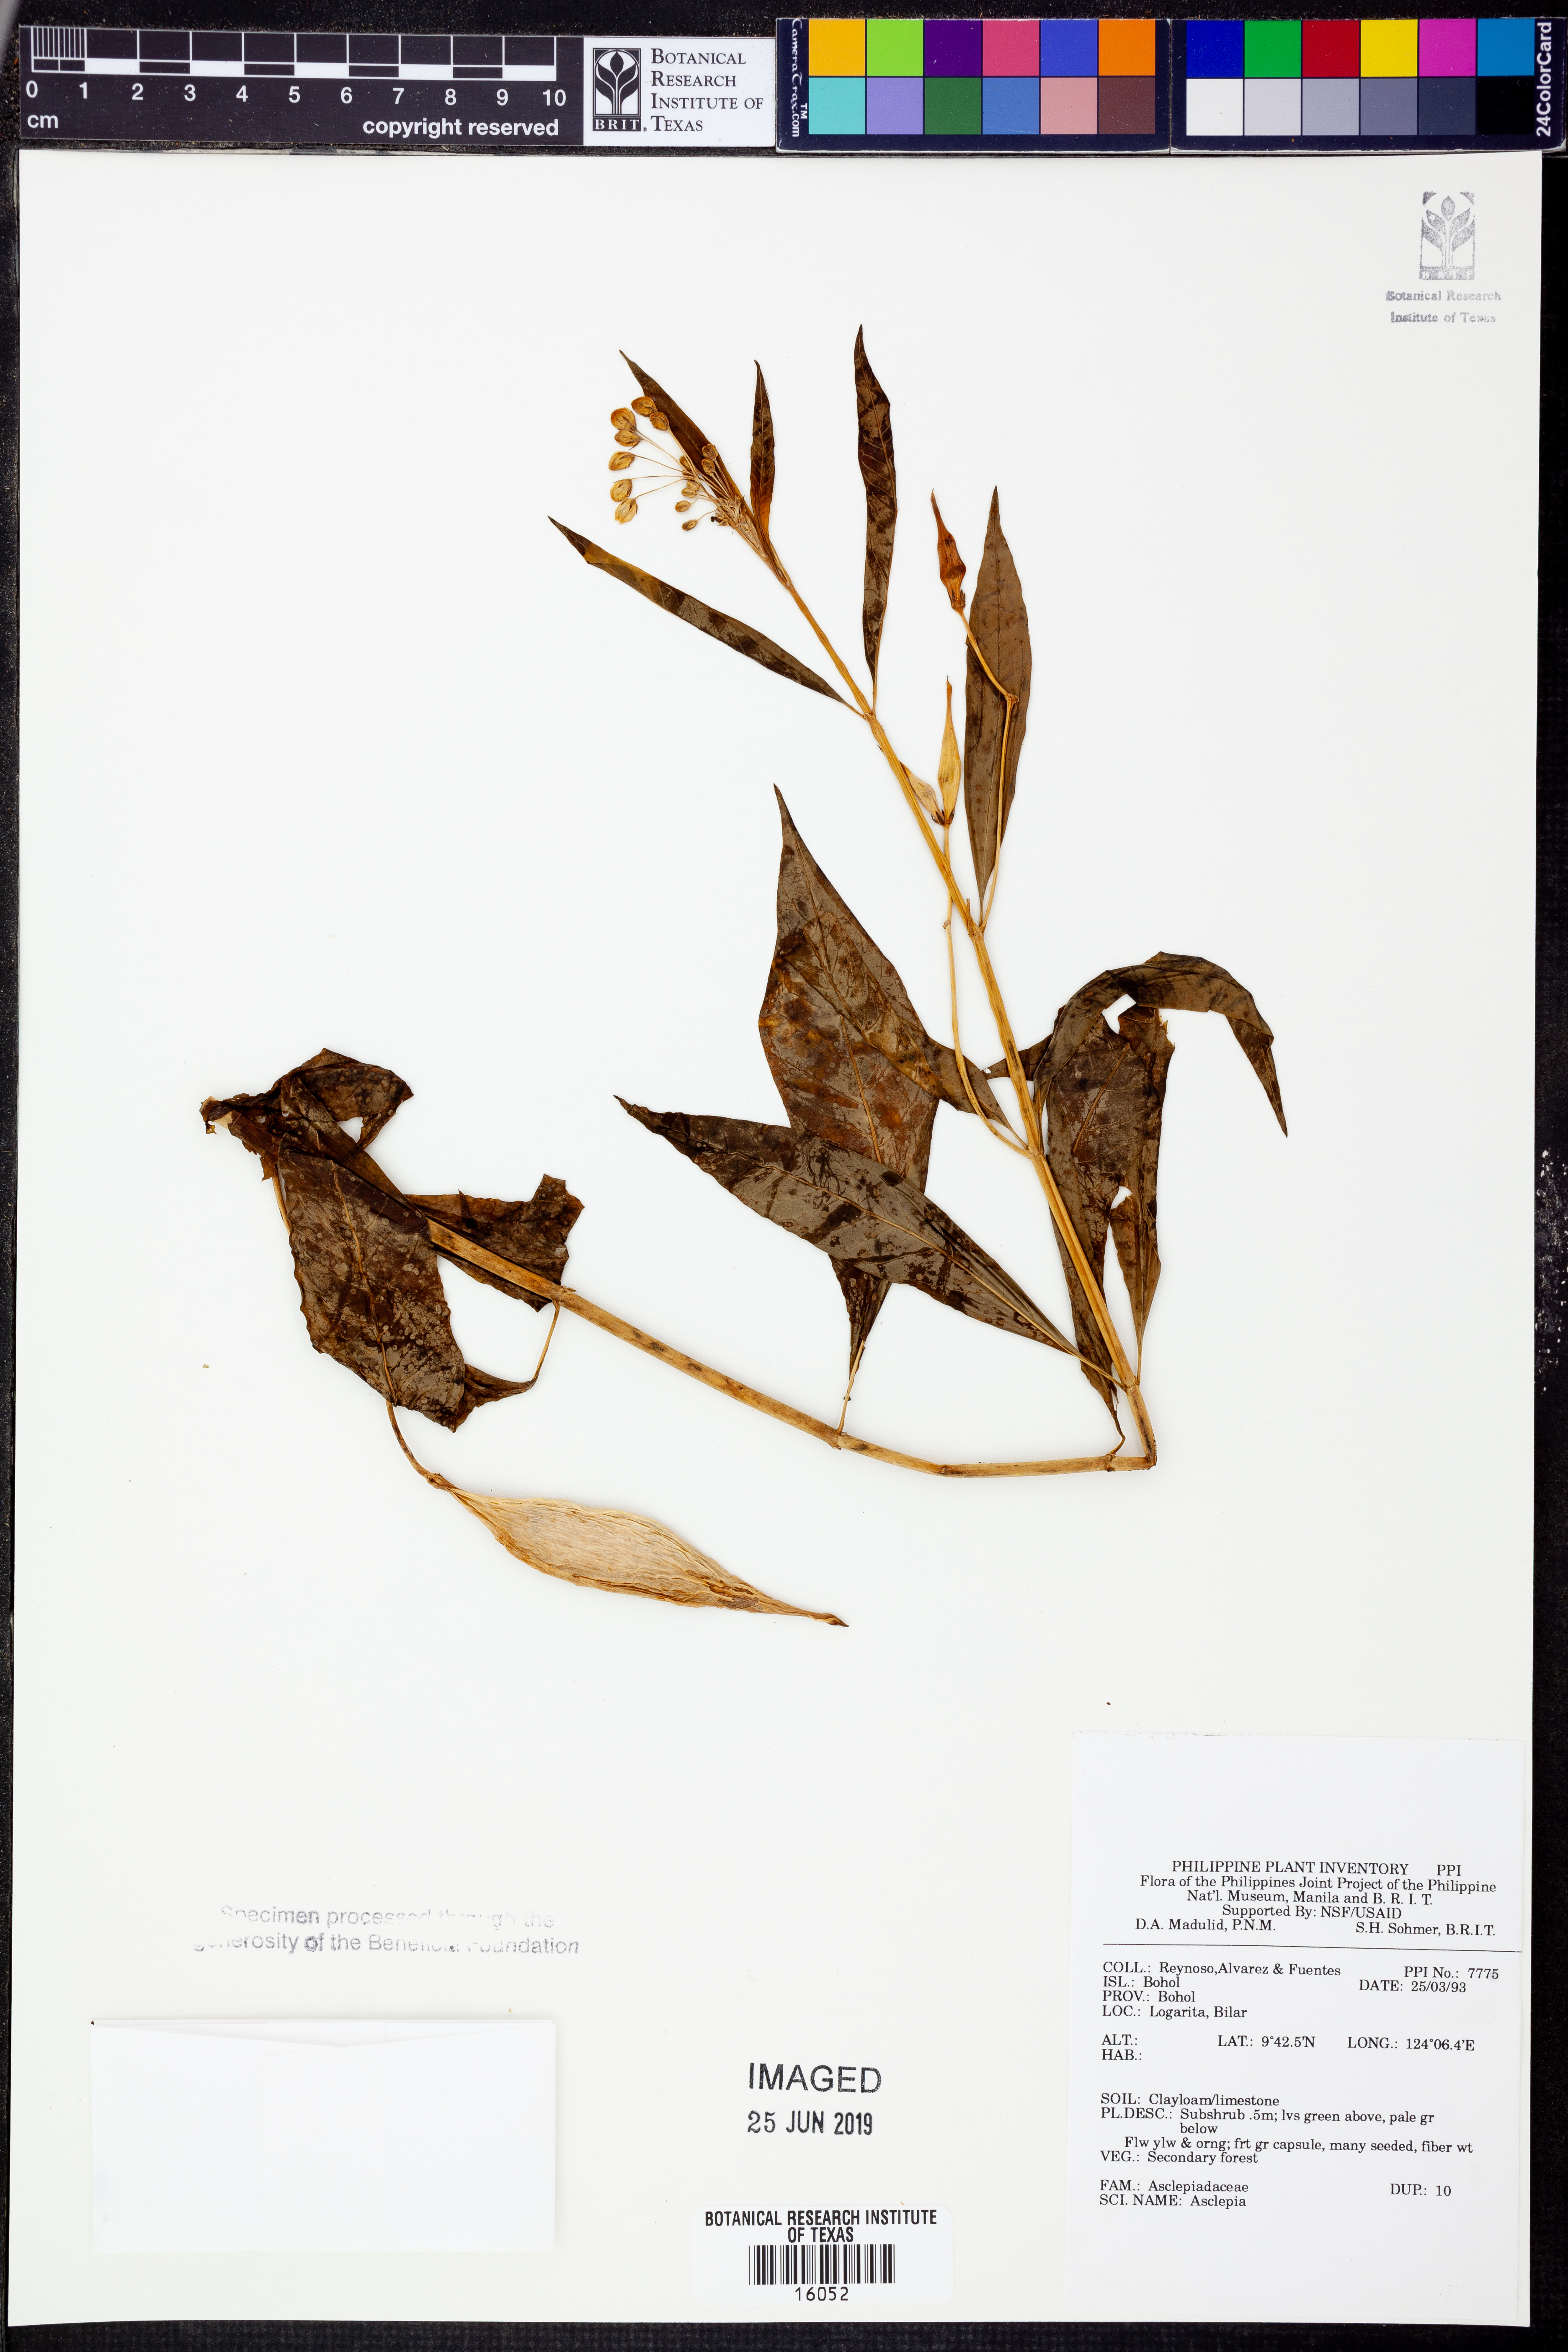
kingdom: Plantae
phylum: Tracheophyta
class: Magnoliopsida
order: Gentianales
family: Apocynaceae
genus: Asclepias
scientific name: Asclepias
